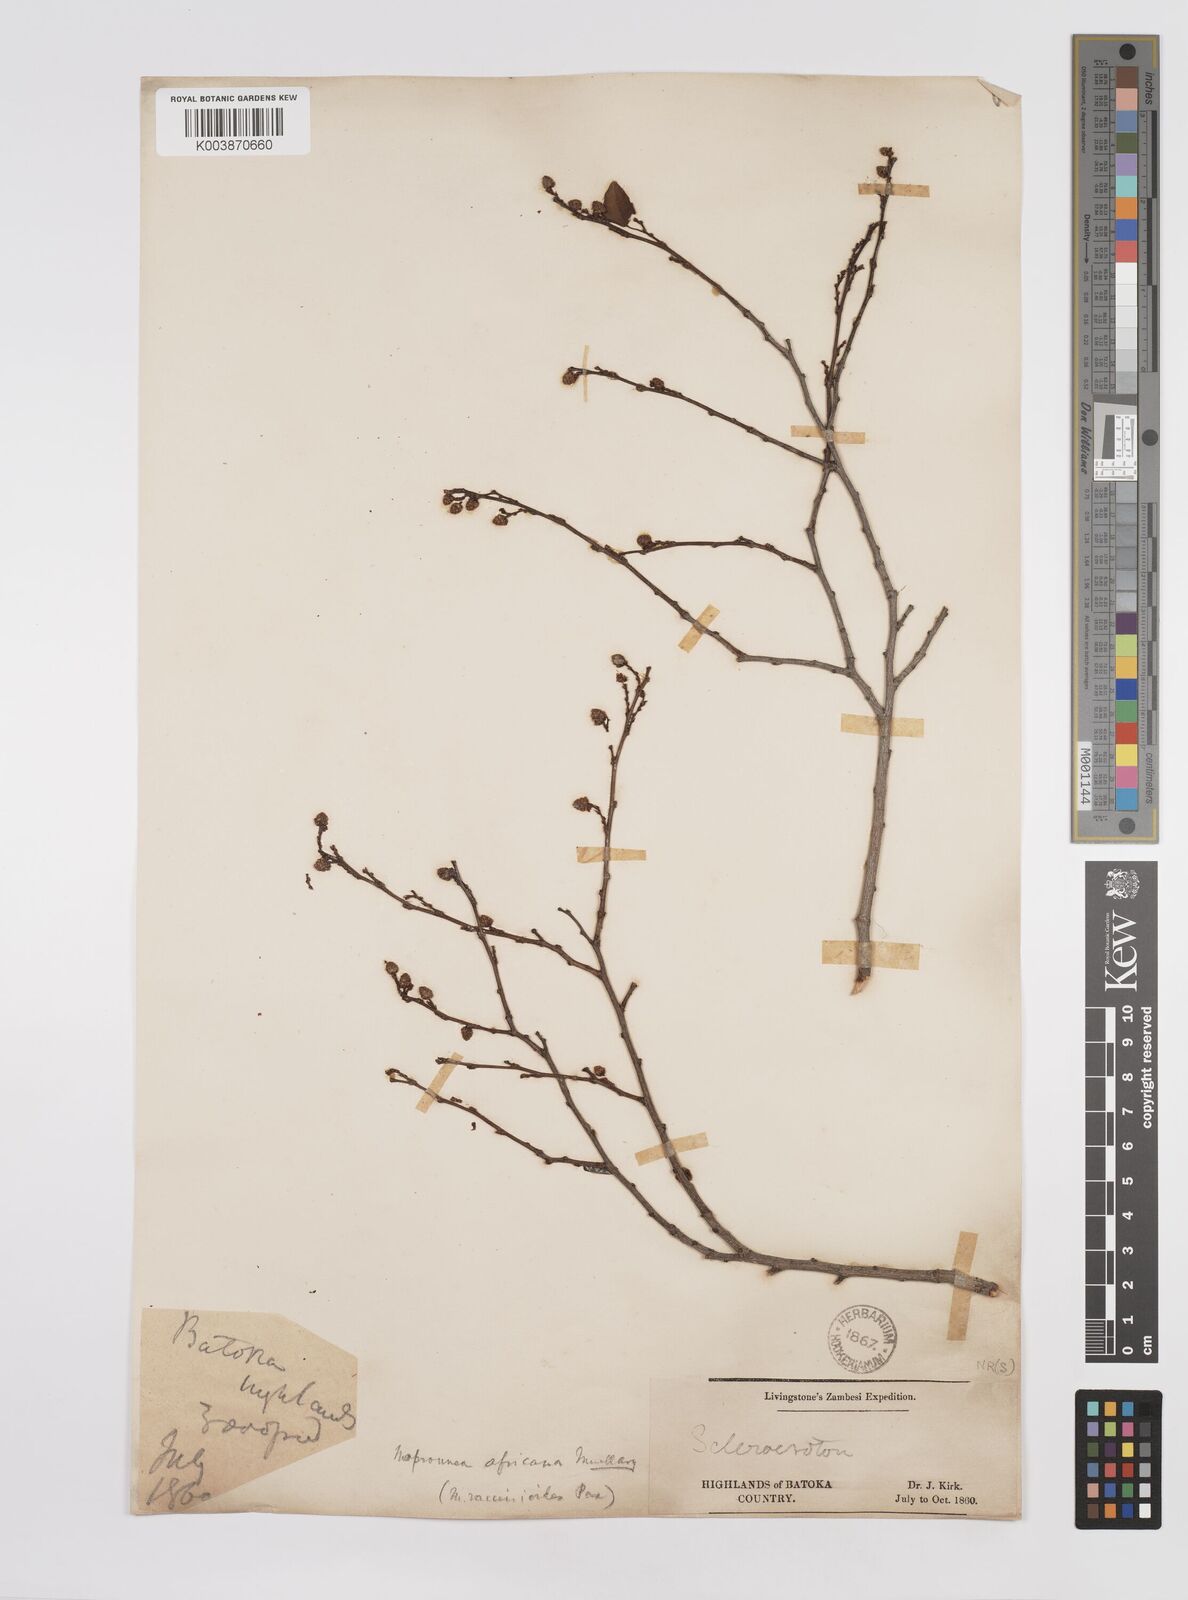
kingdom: Plantae
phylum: Tracheophyta
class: Magnoliopsida
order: Malpighiales
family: Euphorbiaceae
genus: Maprounea
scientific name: Maprounea africana
